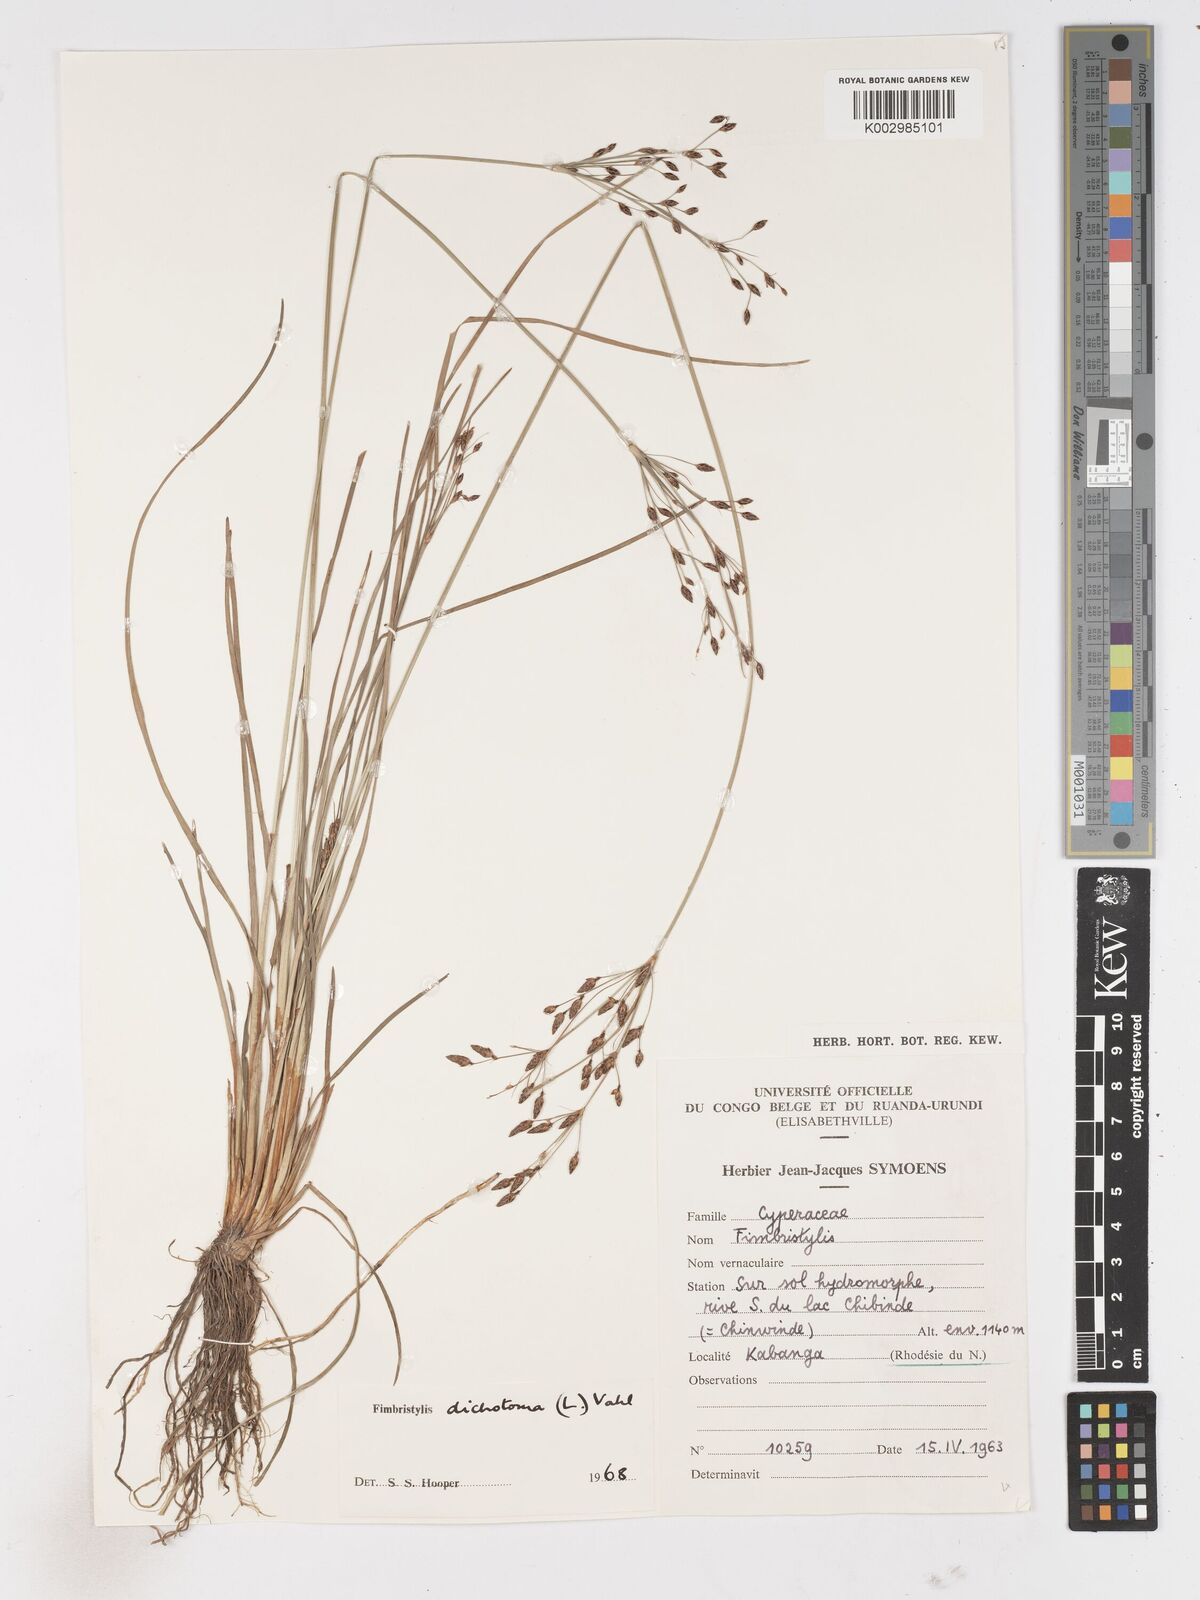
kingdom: Plantae
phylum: Tracheophyta
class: Liliopsida
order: Poales
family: Cyperaceae
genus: Fimbristylis
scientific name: Fimbristylis dichotoma
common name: Forked fimbry
